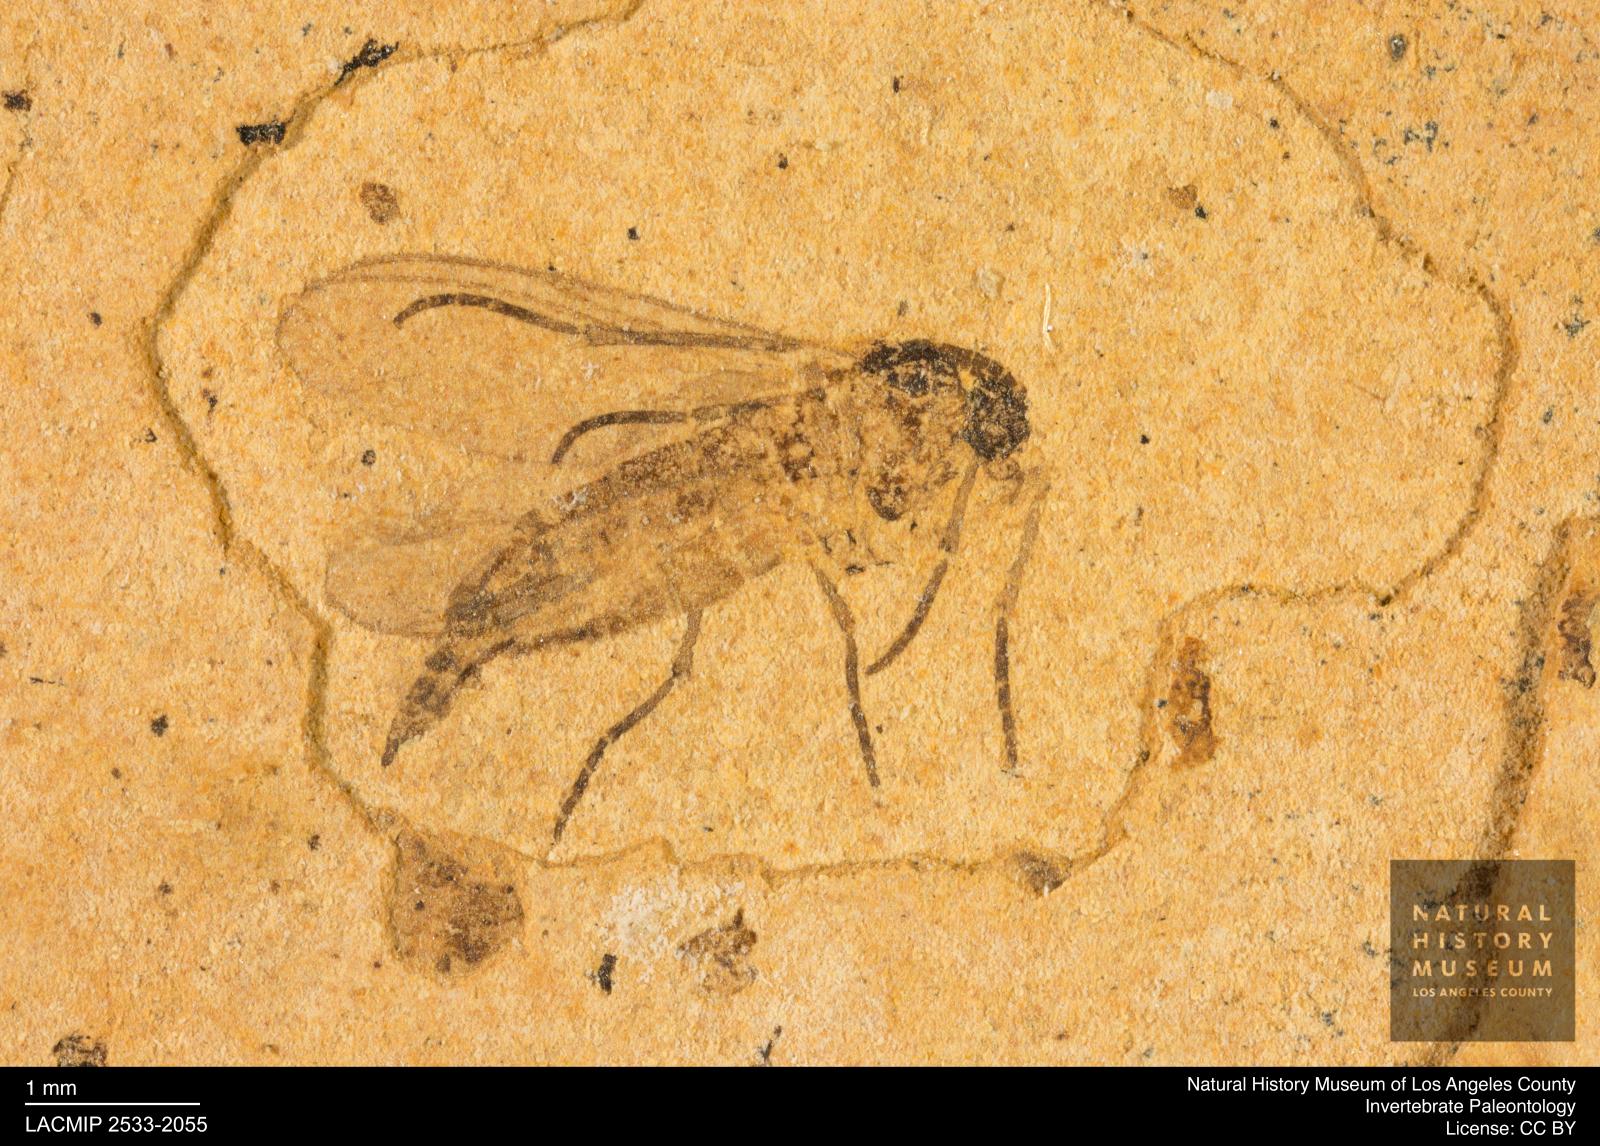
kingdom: Animalia
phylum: Arthropoda
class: Insecta
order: Diptera
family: Sciaridae
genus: Sciara
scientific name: Sciara atavina
